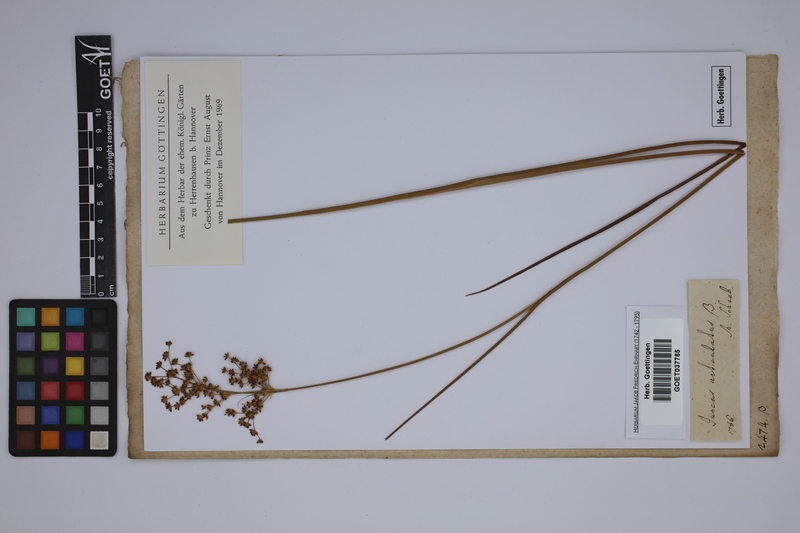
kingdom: Plantae
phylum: Tracheophyta
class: Liliopsida
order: Poales
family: Juncaceae
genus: Juncus
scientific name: Juncus articulatus
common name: Jointed rush
